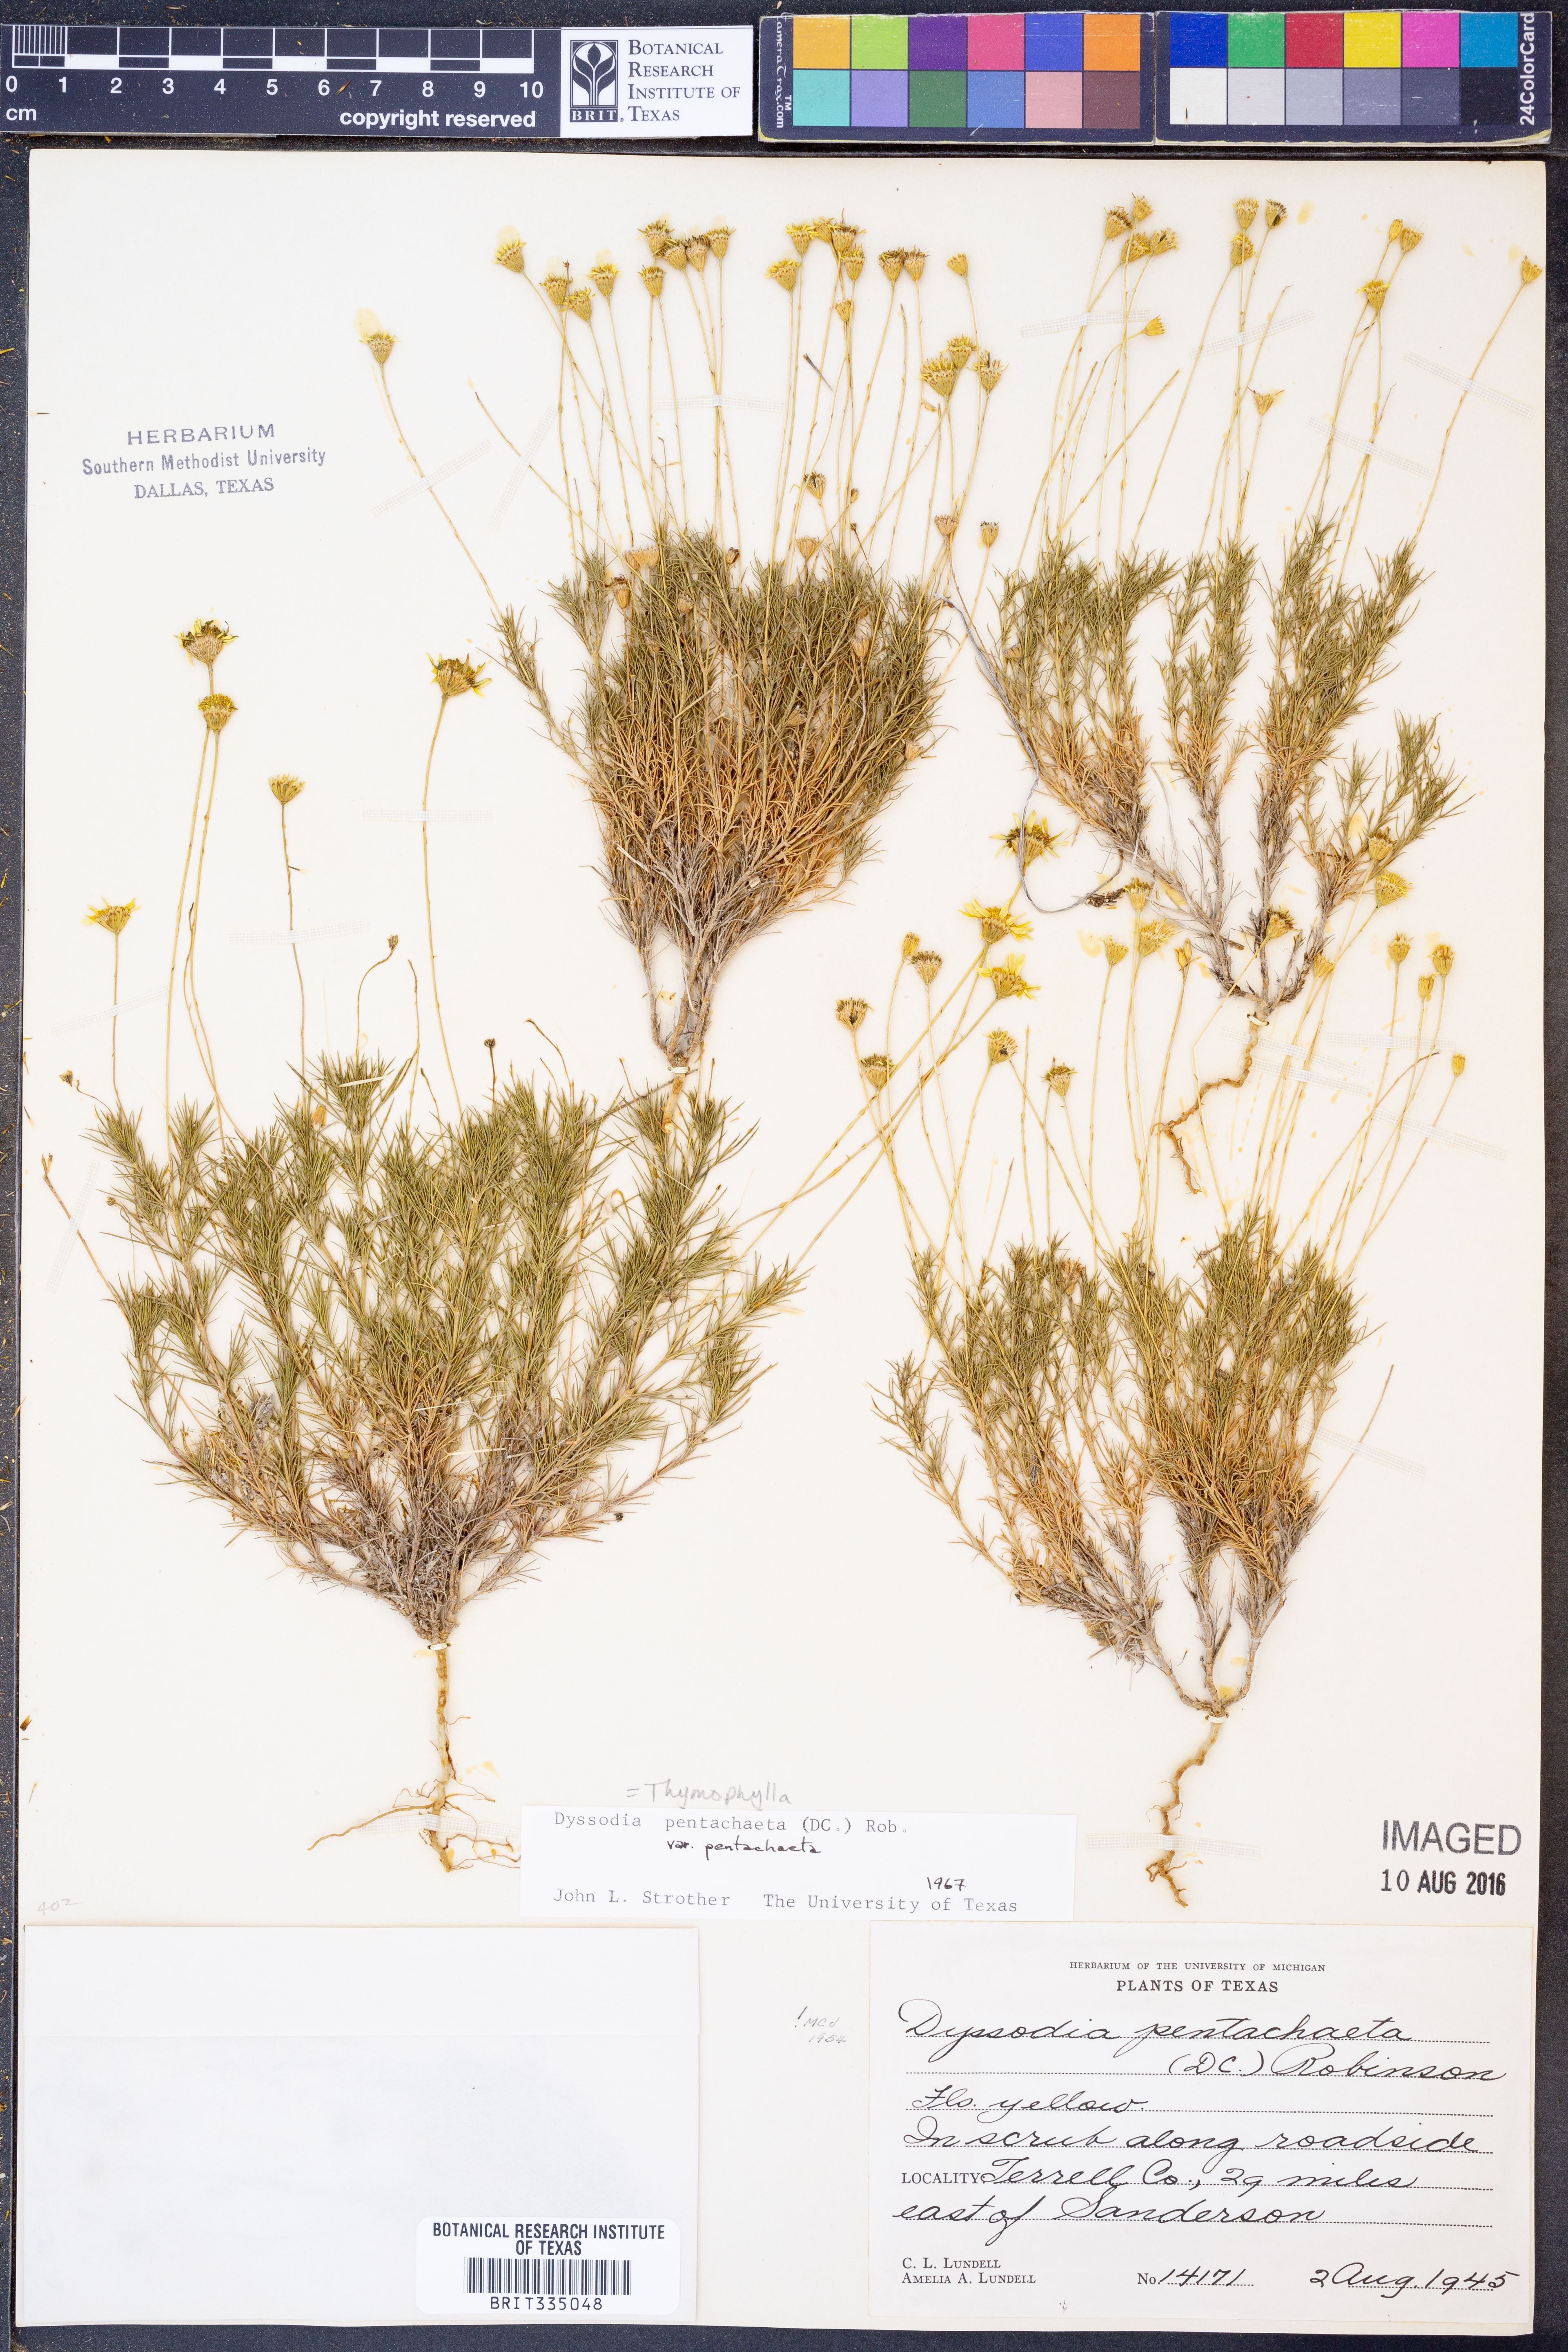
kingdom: Plantae
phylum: Tracheophyta
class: Magnoliopsida
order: Asterales
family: Asteraceae
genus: Thymophylla
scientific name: Thymophylla pentachaeta
